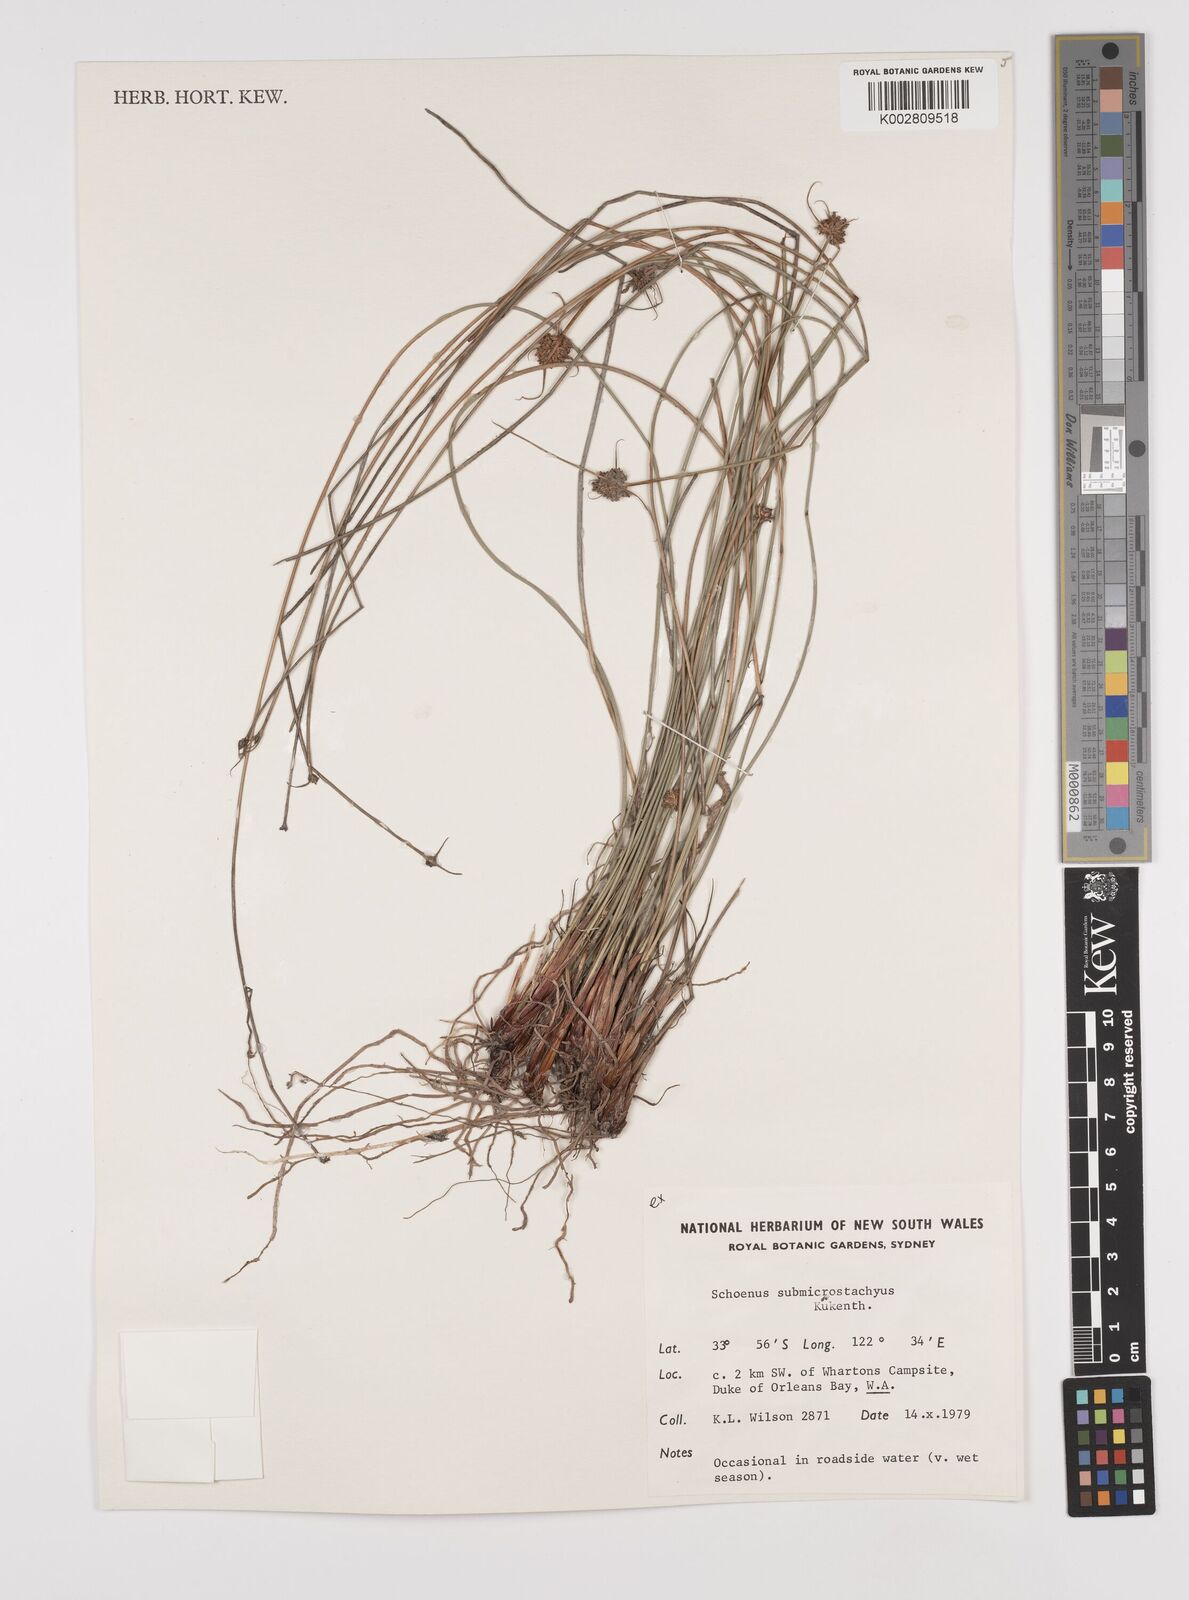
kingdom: Plantae
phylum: Tracheophyta
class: Liliopsida
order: Poales
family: Cyperaceae
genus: Schoenus
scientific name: Schoenus submicrostachyus
